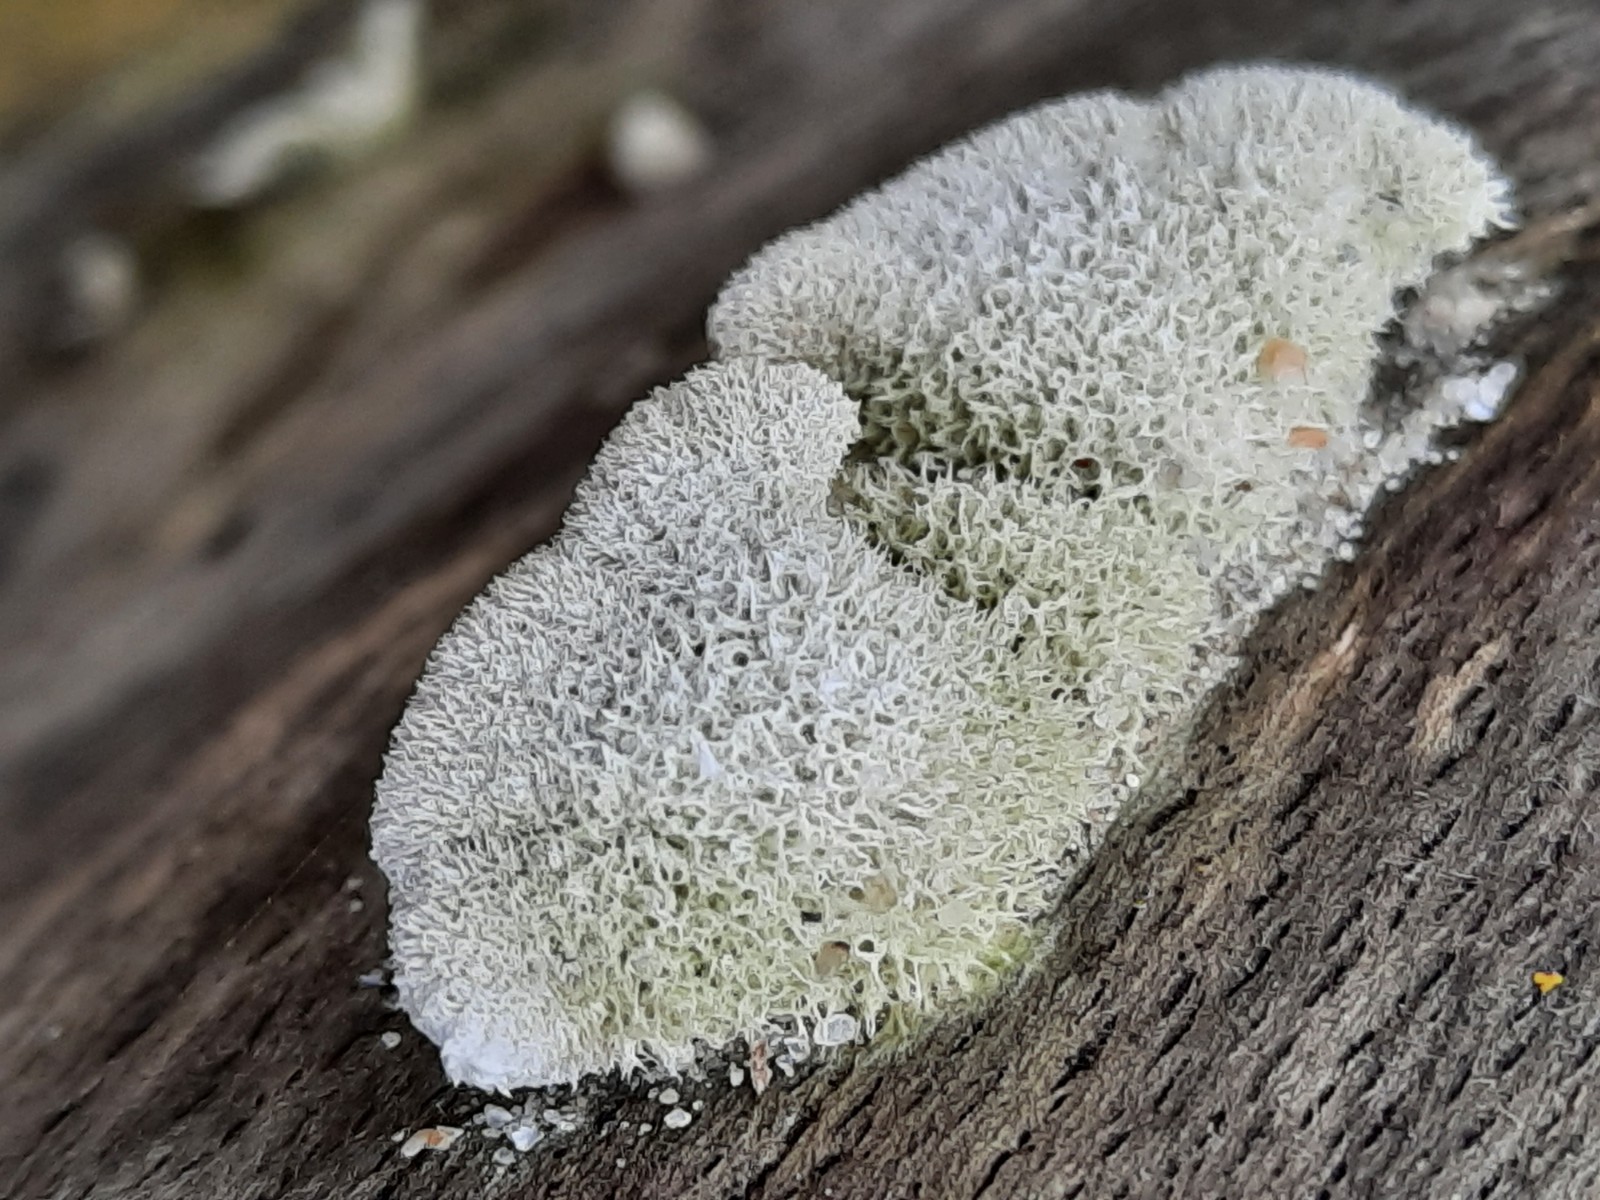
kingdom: Fungi
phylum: Basidiomycota
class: Agaricomycetes
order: Agaricales
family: Schizophyllaceae
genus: Schizophyllum
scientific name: Schizophyllum commune
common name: kløvblad
